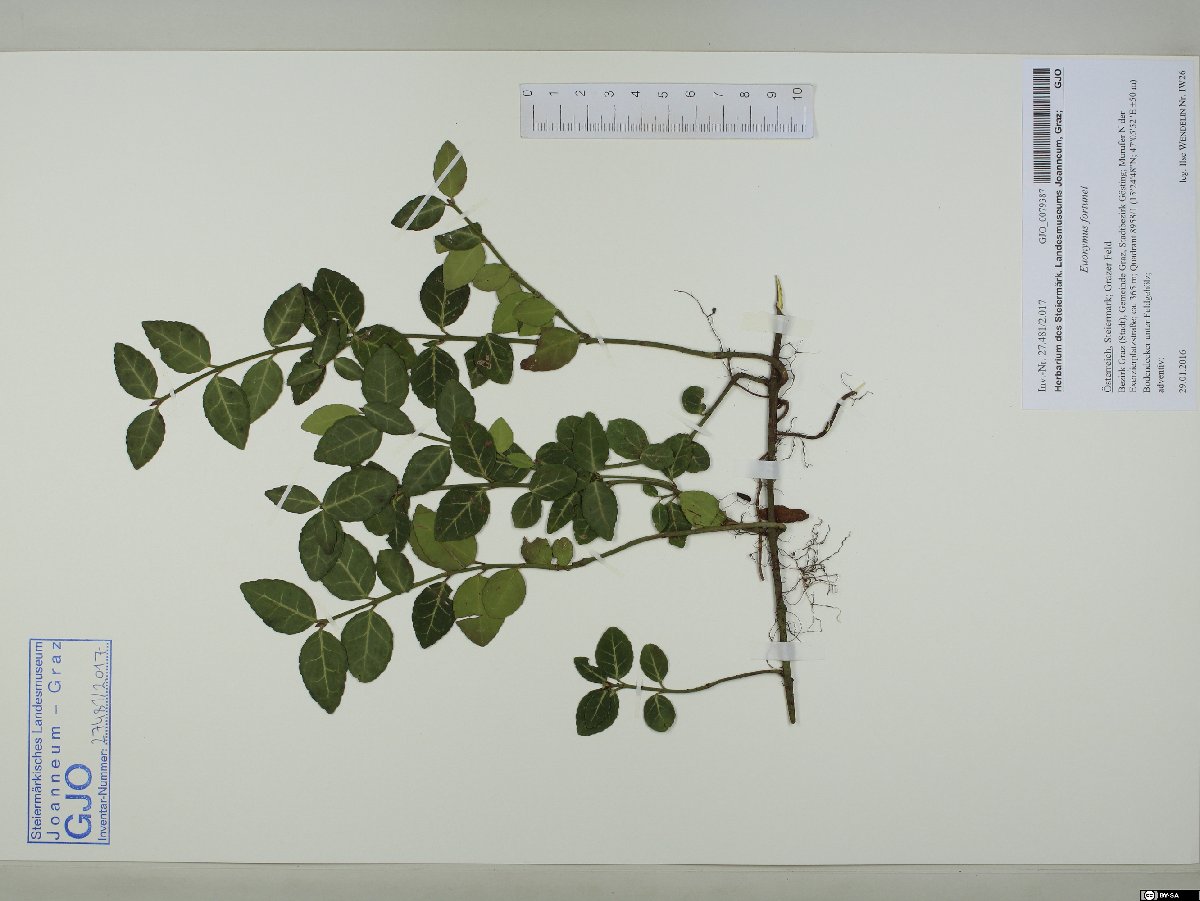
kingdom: Plantae
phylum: Tracheophyta
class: Magnoliopsida
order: Celastrales
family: Celastraceae
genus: Euonymus
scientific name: Euonymus fortunei
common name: Climbing euonymus
